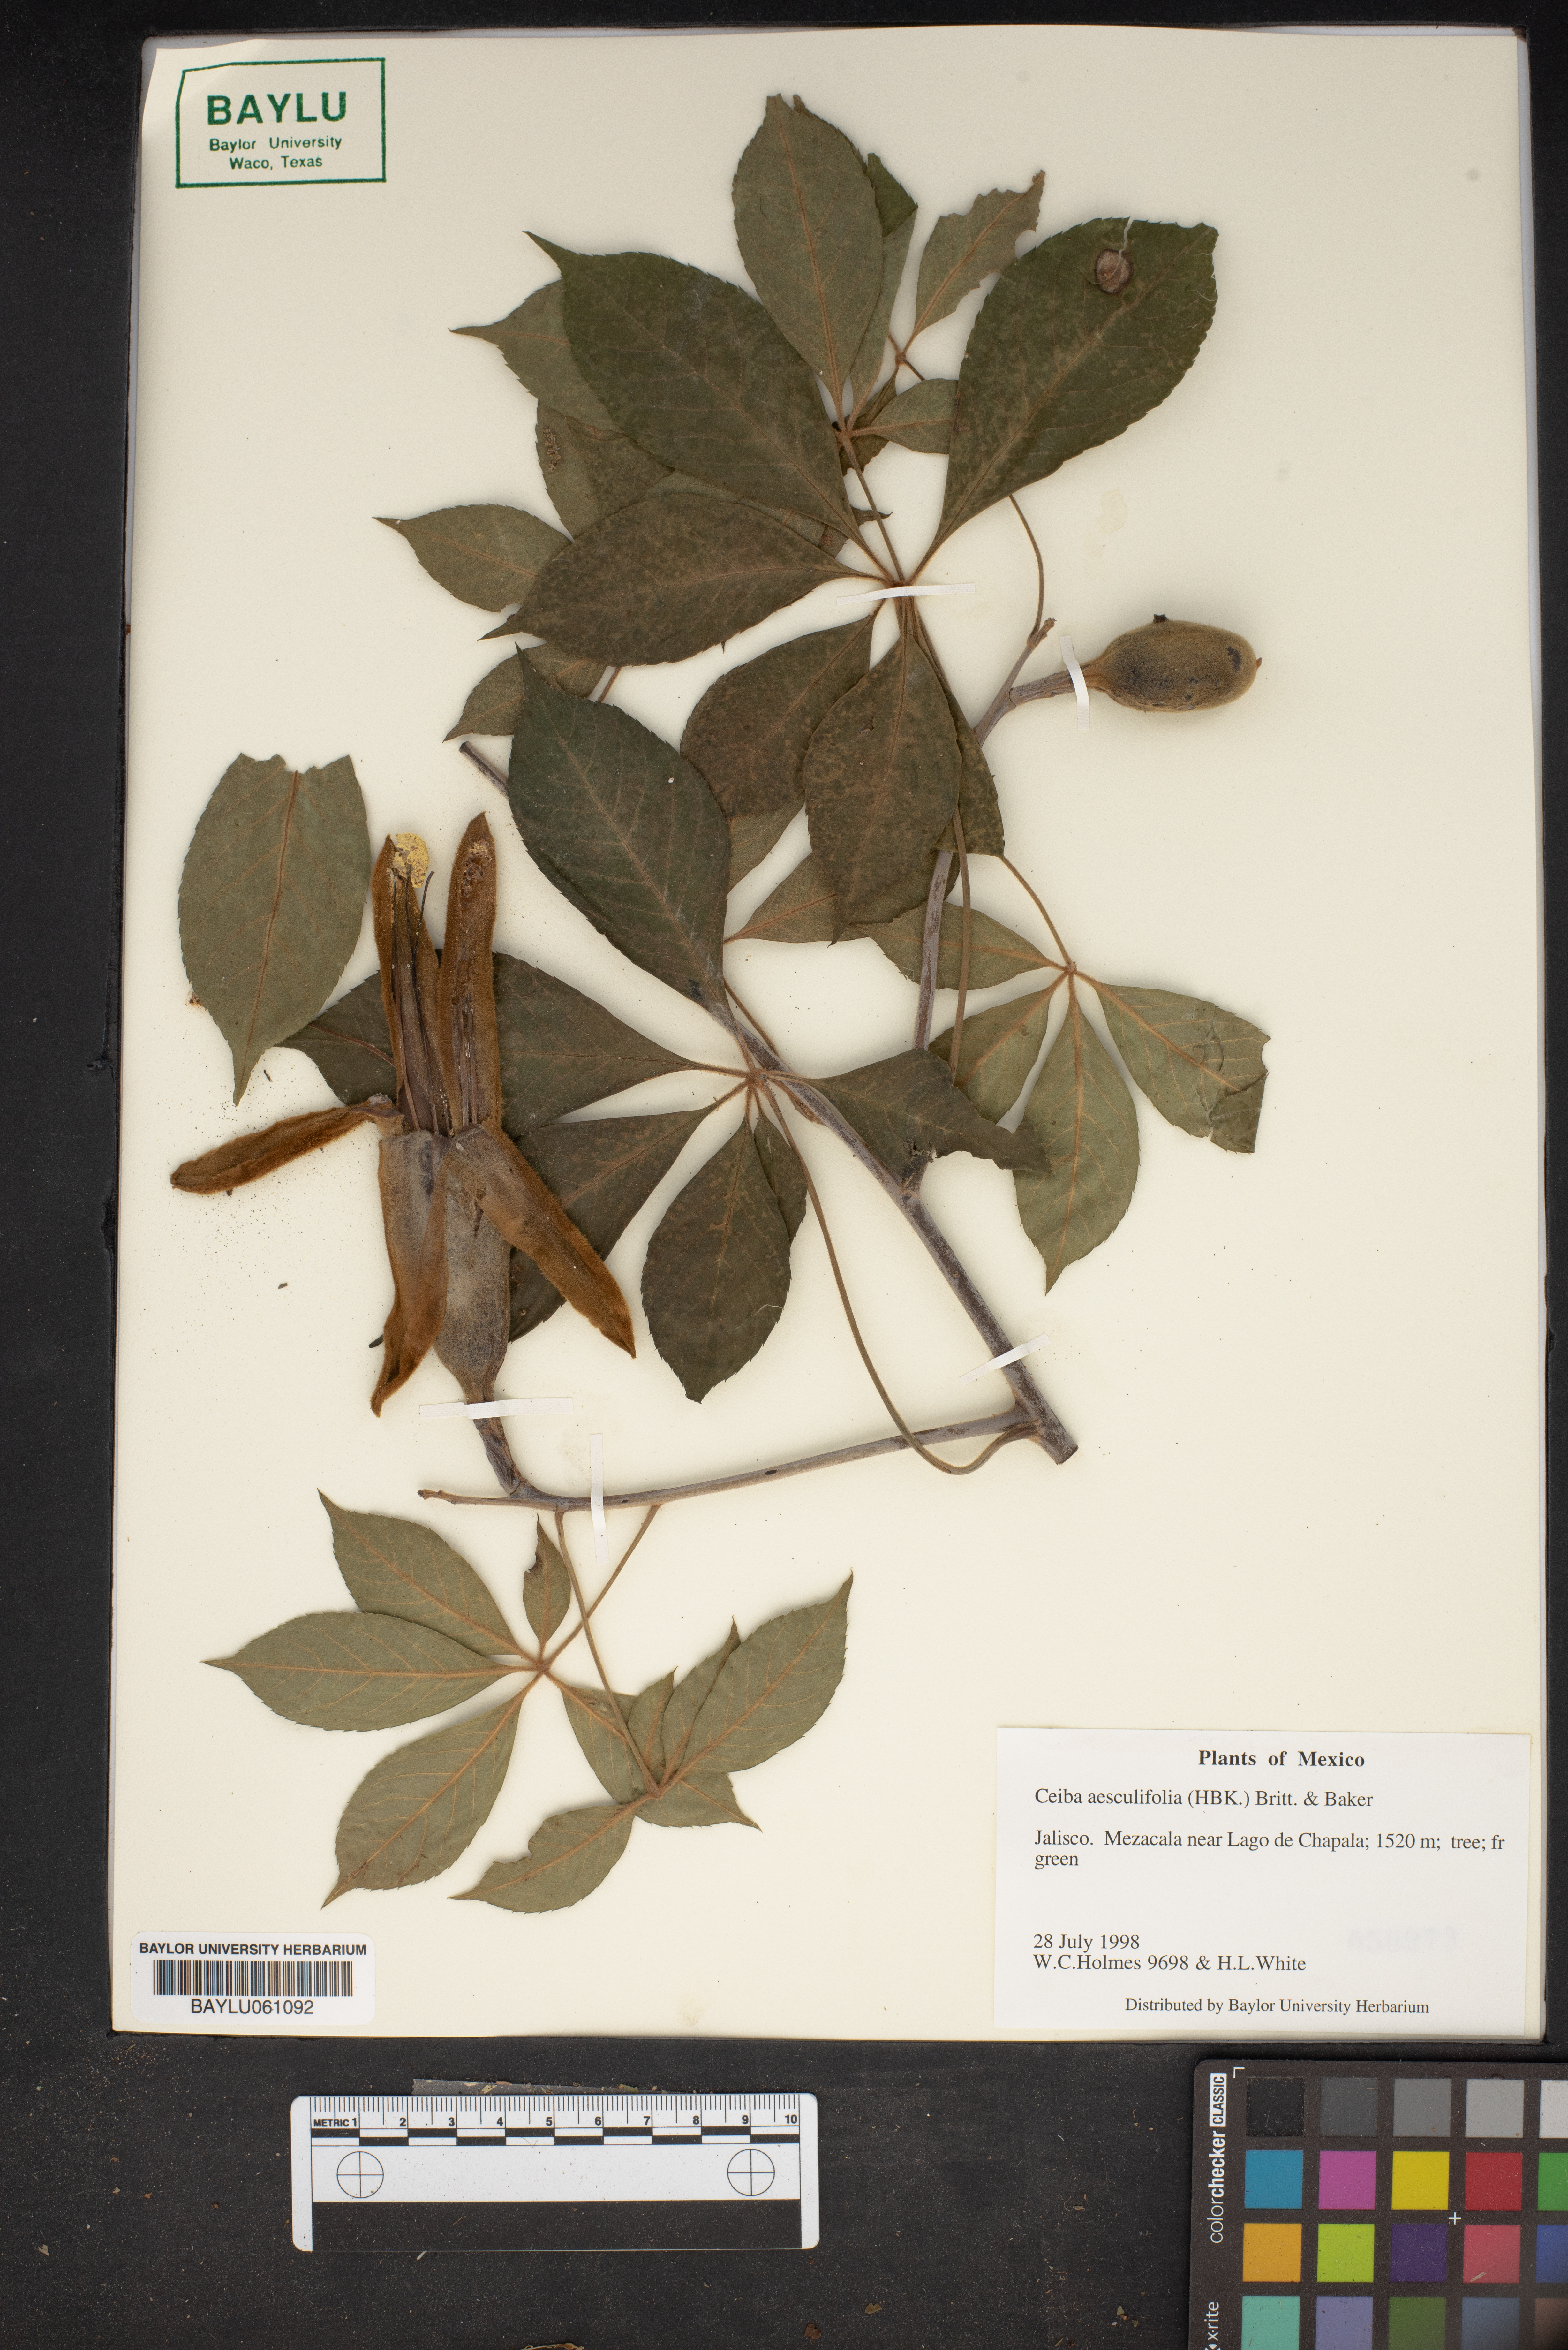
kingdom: Plantae
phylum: Tracheophyta
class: Magnoliopsida
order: Malvales
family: Malvaceae
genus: Ceiba
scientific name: Ceiba aesculifolia
